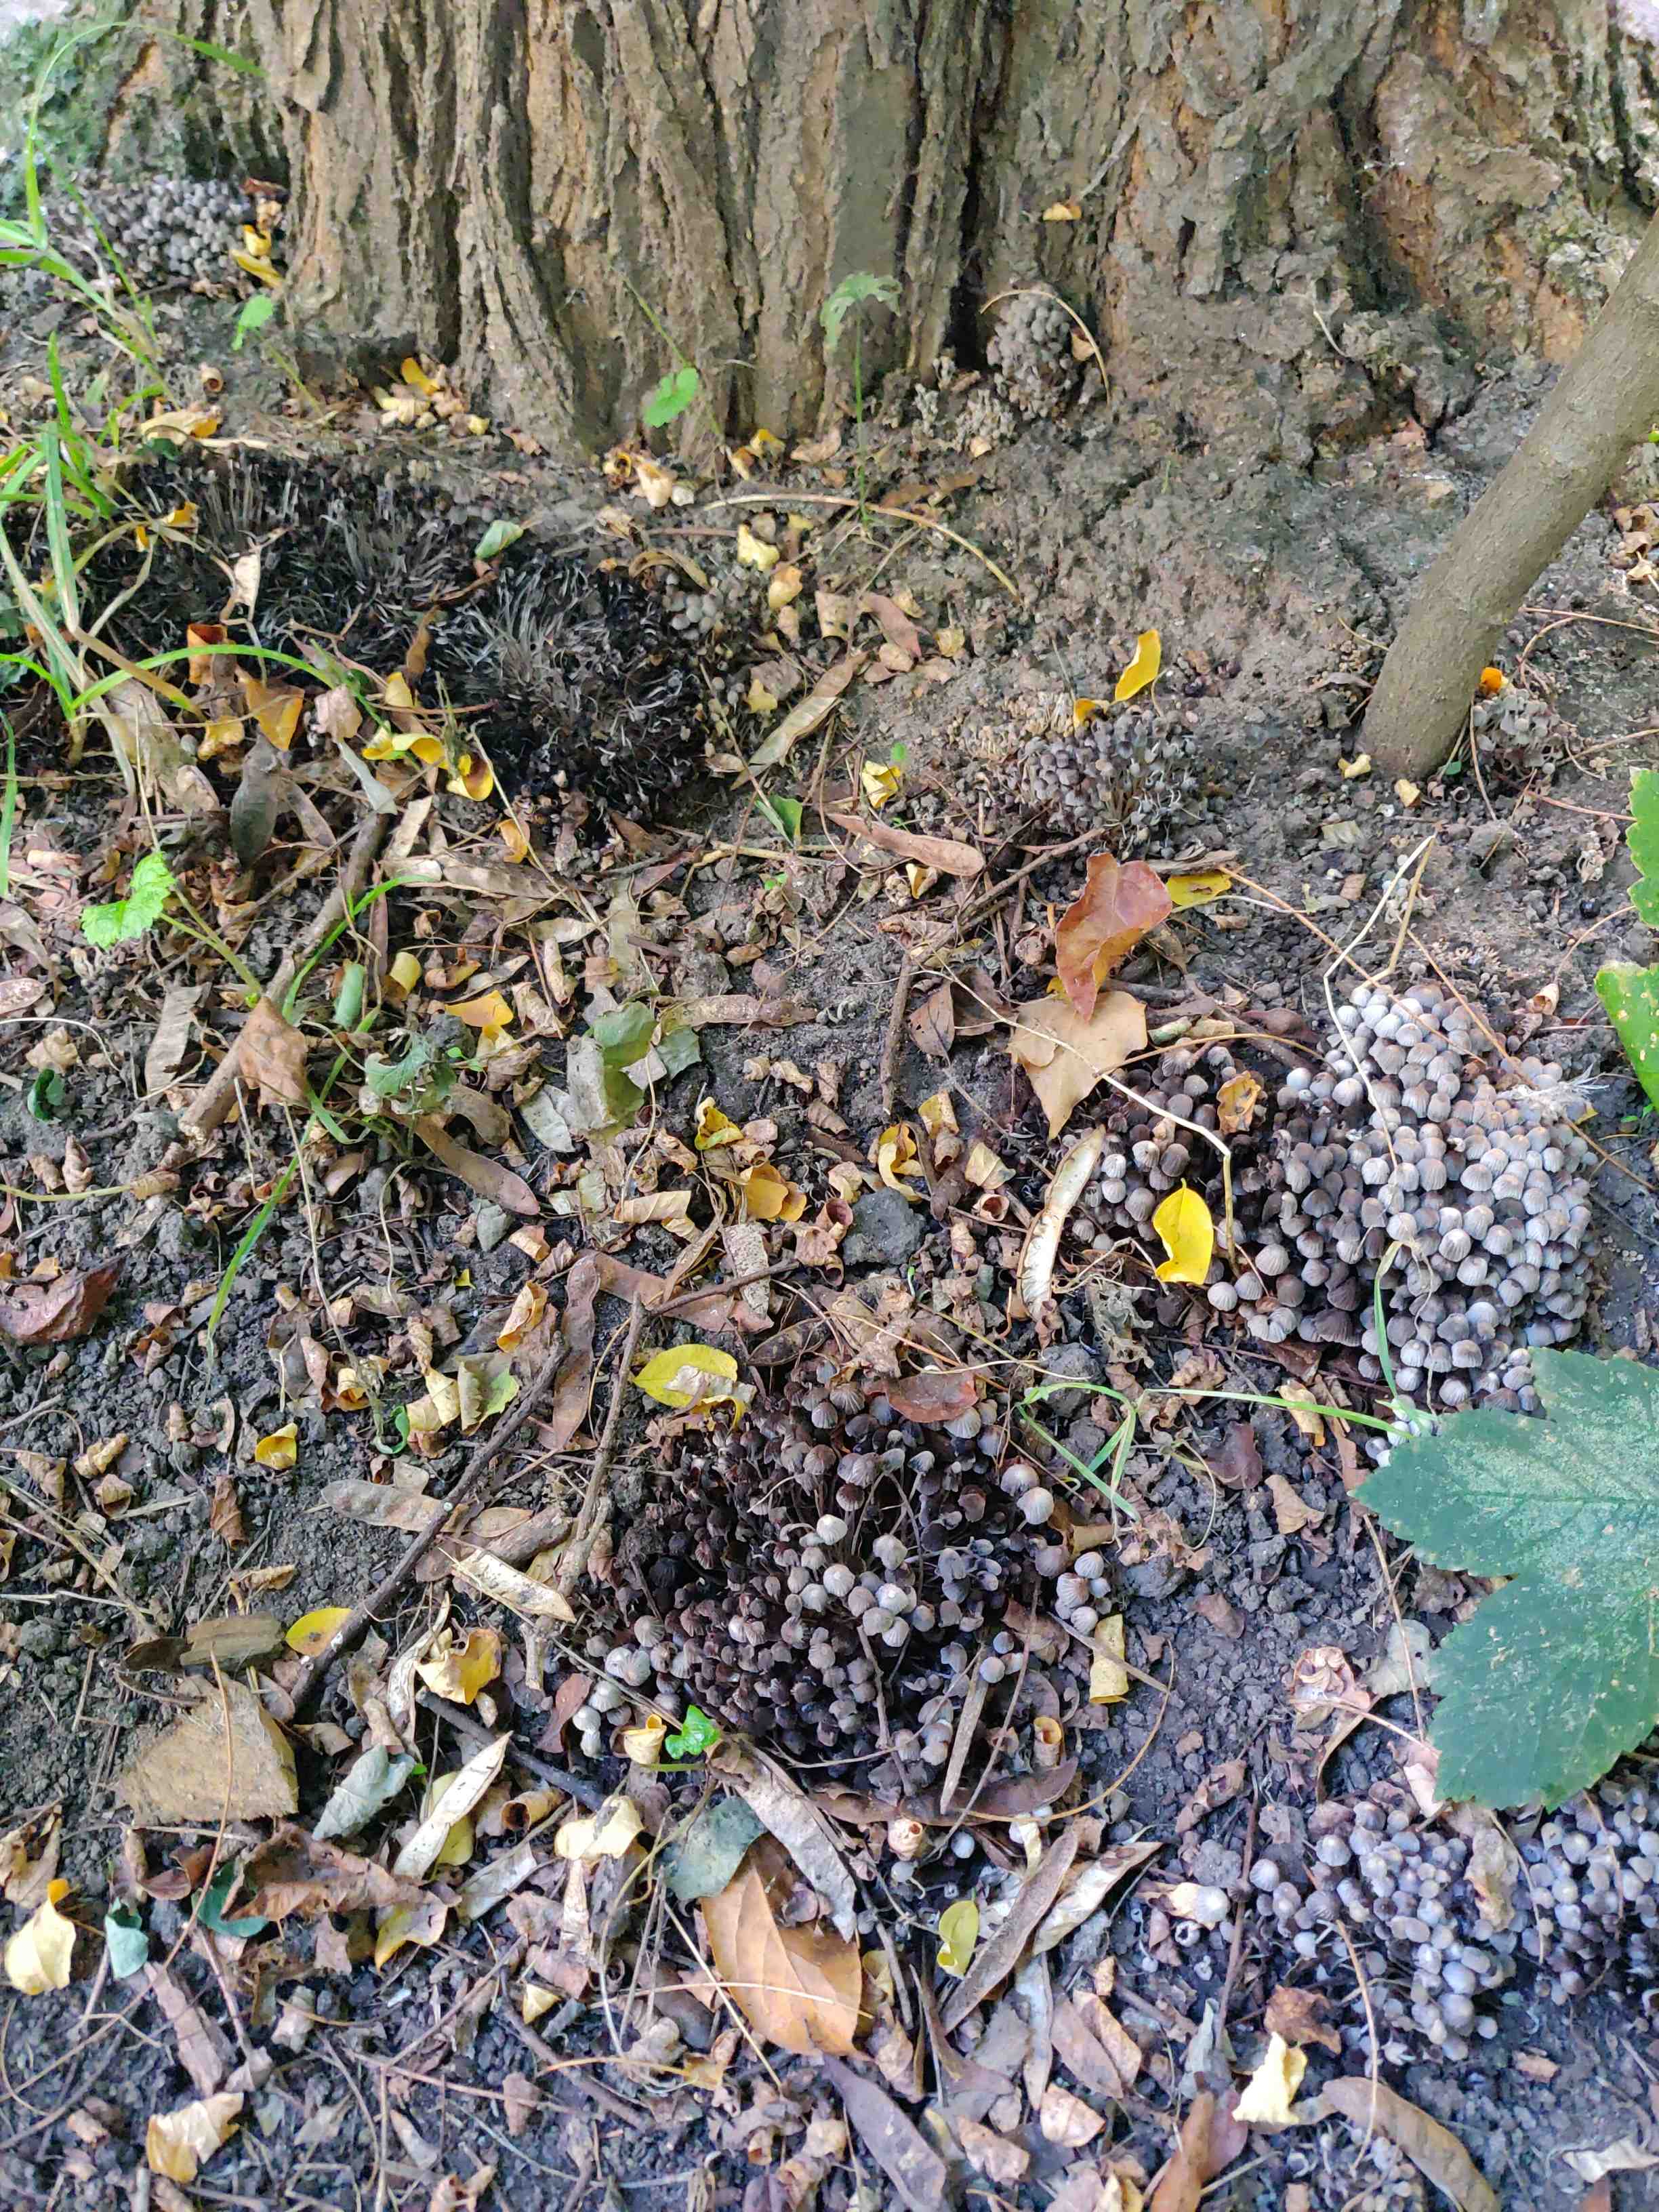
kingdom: Fungi
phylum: Basidiomycota
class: Agaricomycetes
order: Agaricales
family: Psathyrellaceae
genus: Coprinellus
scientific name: Coprinellus disseminatus
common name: bredsået blækhat
